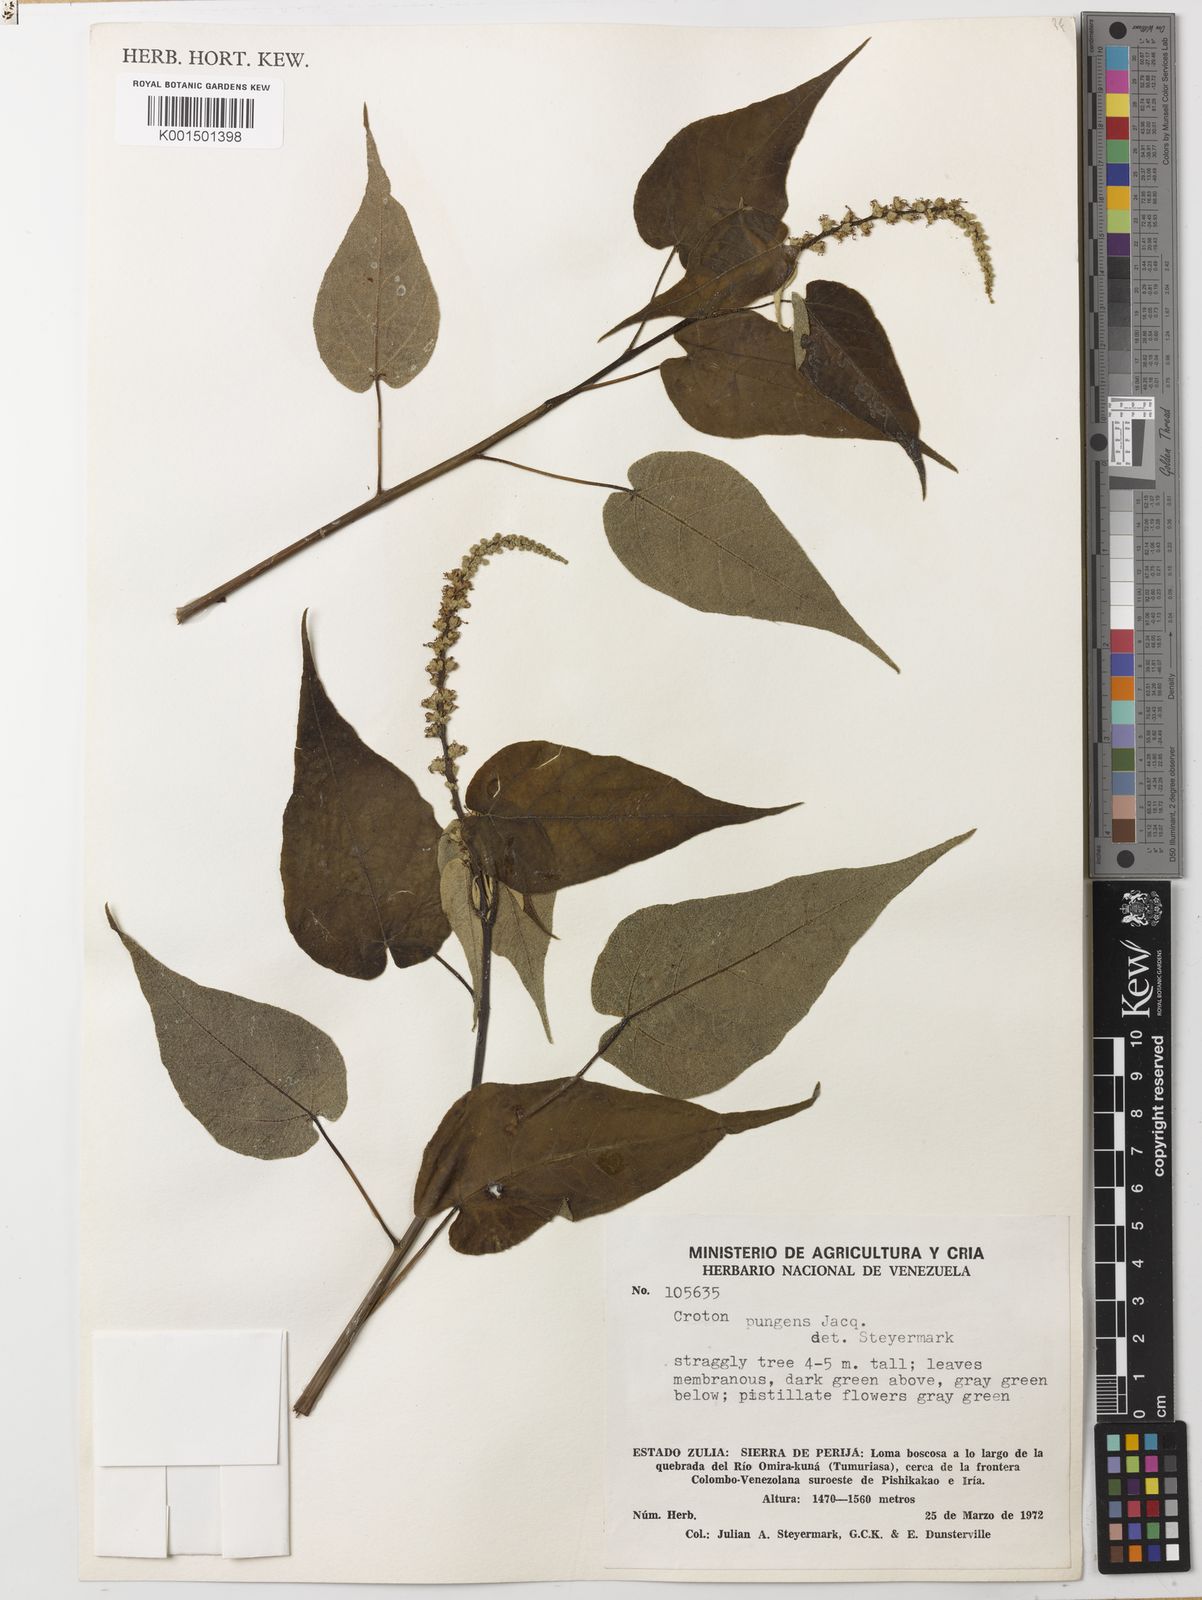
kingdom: Plantae
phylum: Tracheophyta
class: Magnoliopsida
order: Malpighiales
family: Euphorbiaceae
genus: Croton
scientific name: Croton pungens
